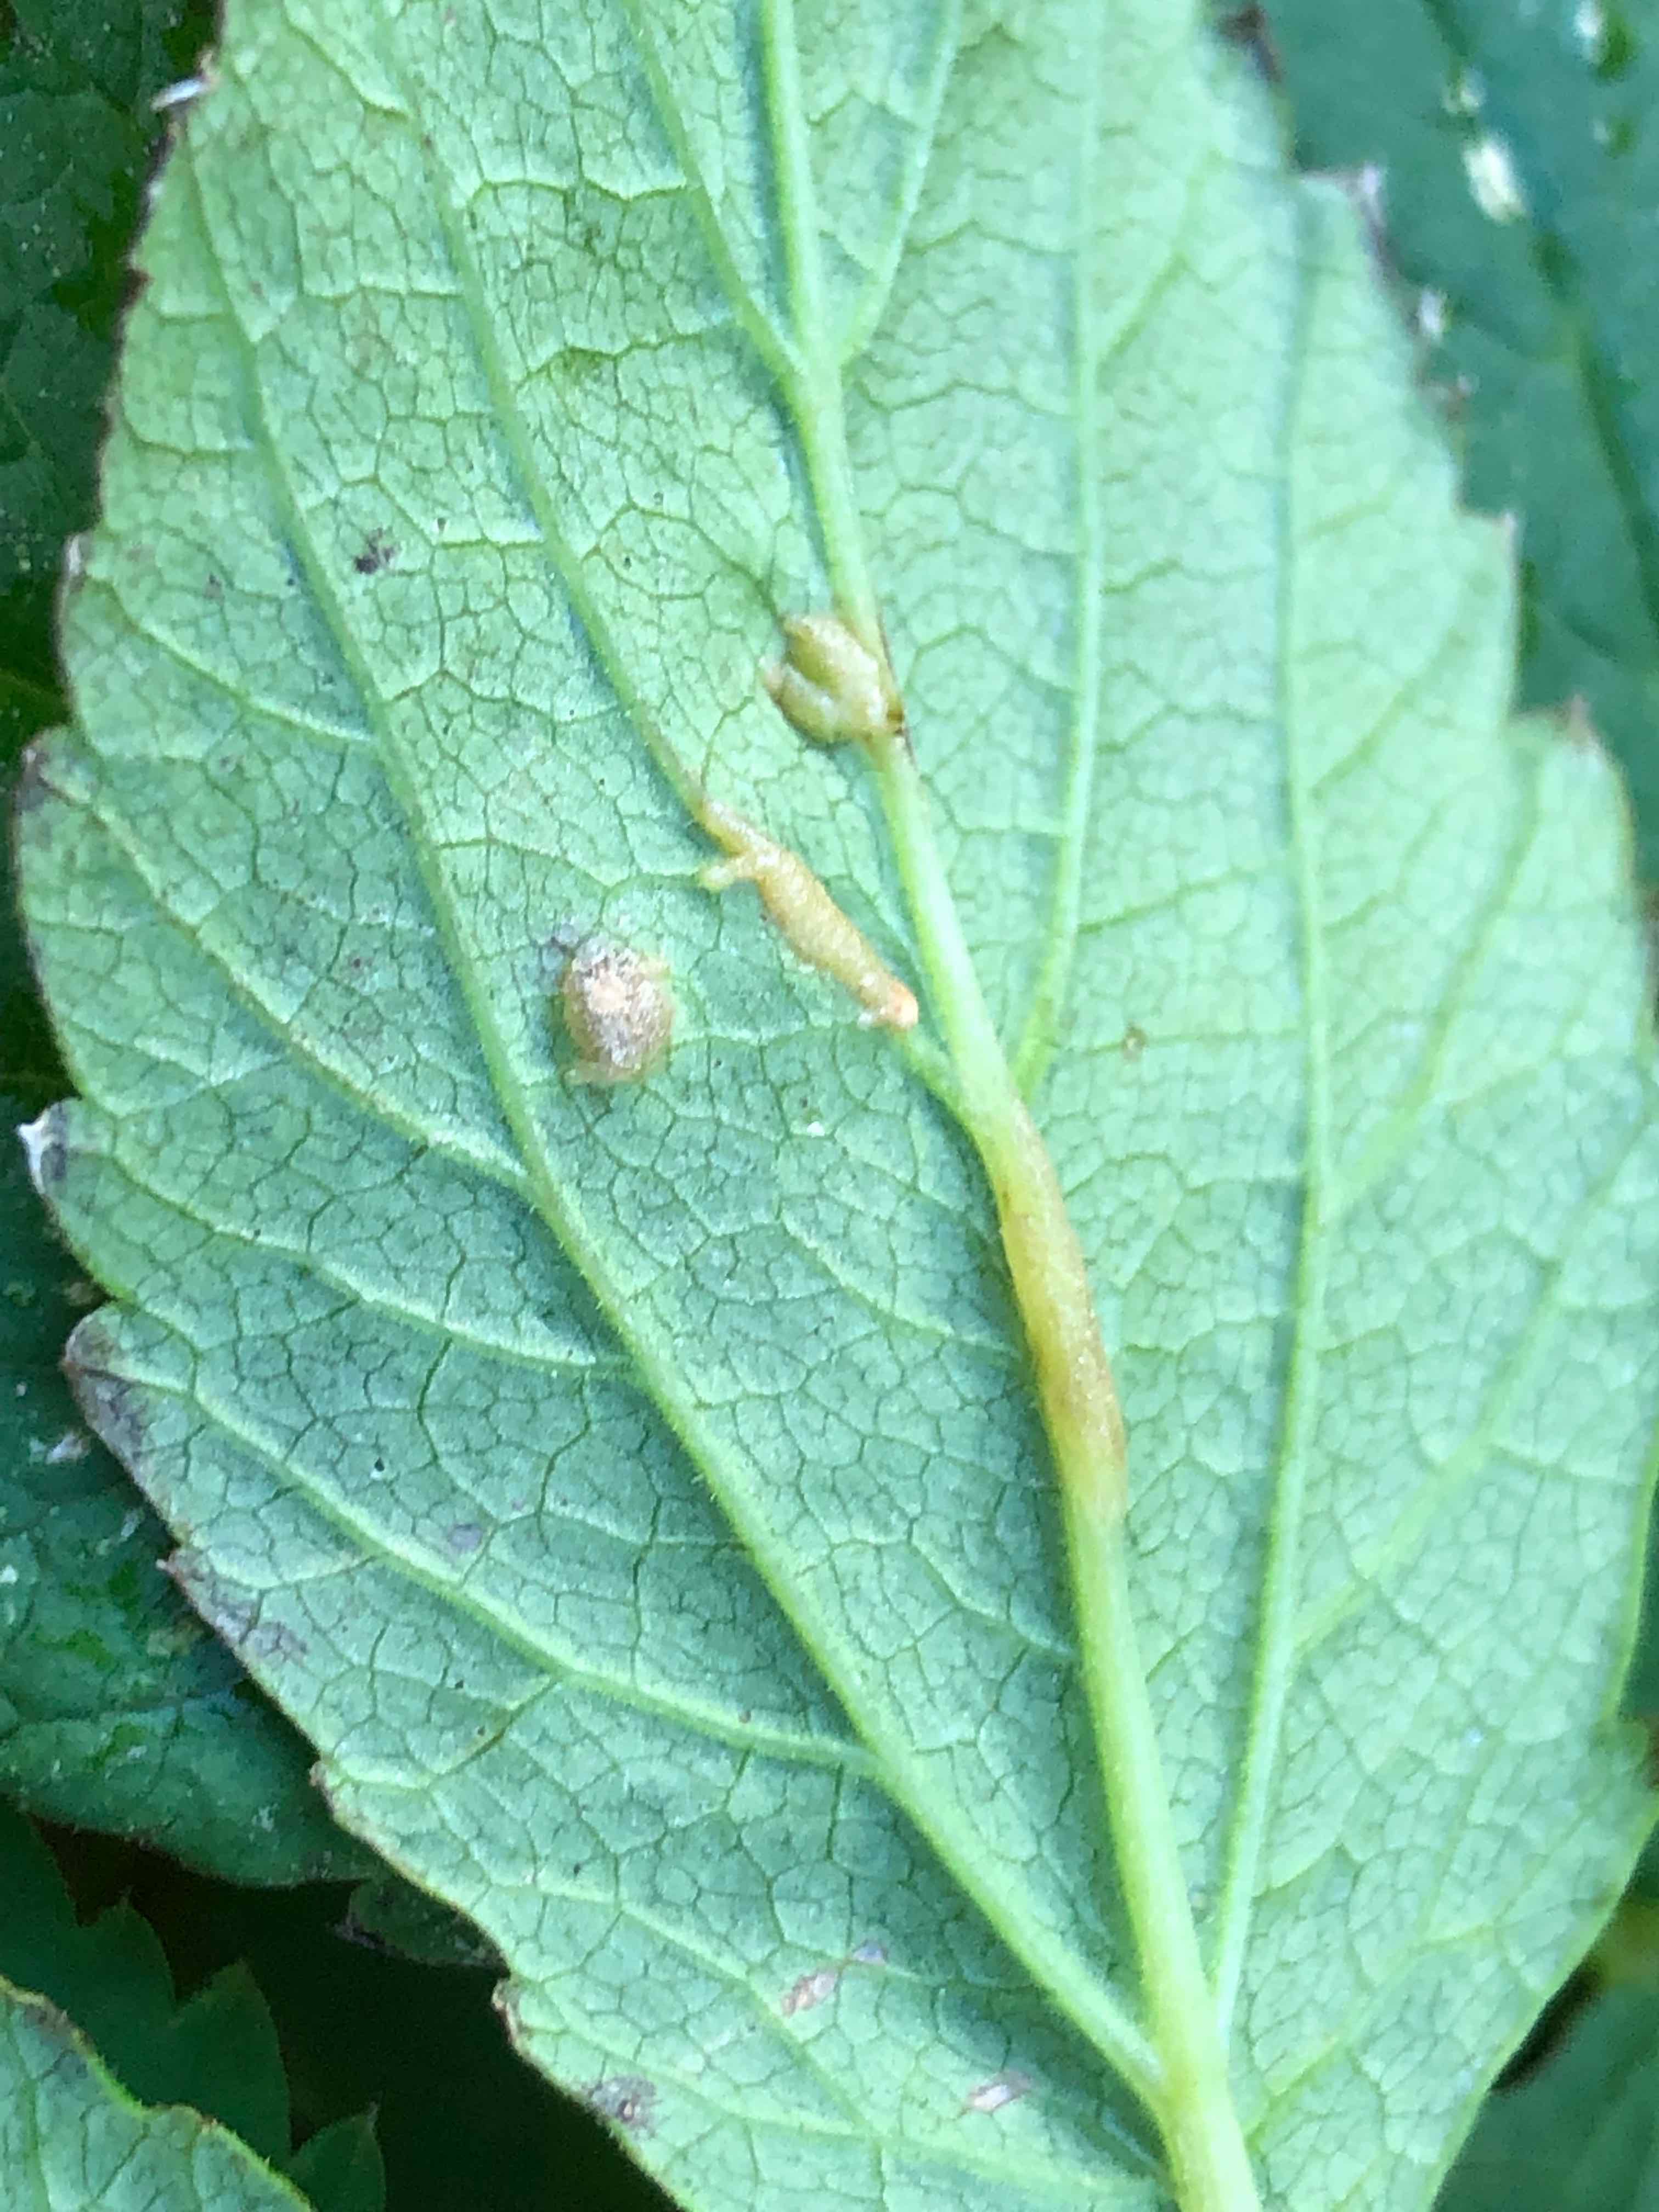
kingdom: Fungi
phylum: Ascomycota
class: Taphrinomycetes
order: Taphrinales
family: Taphrinaceae
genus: Protomyces
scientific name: Protomyces macrosporus
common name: skvalderkål-vablesæk
